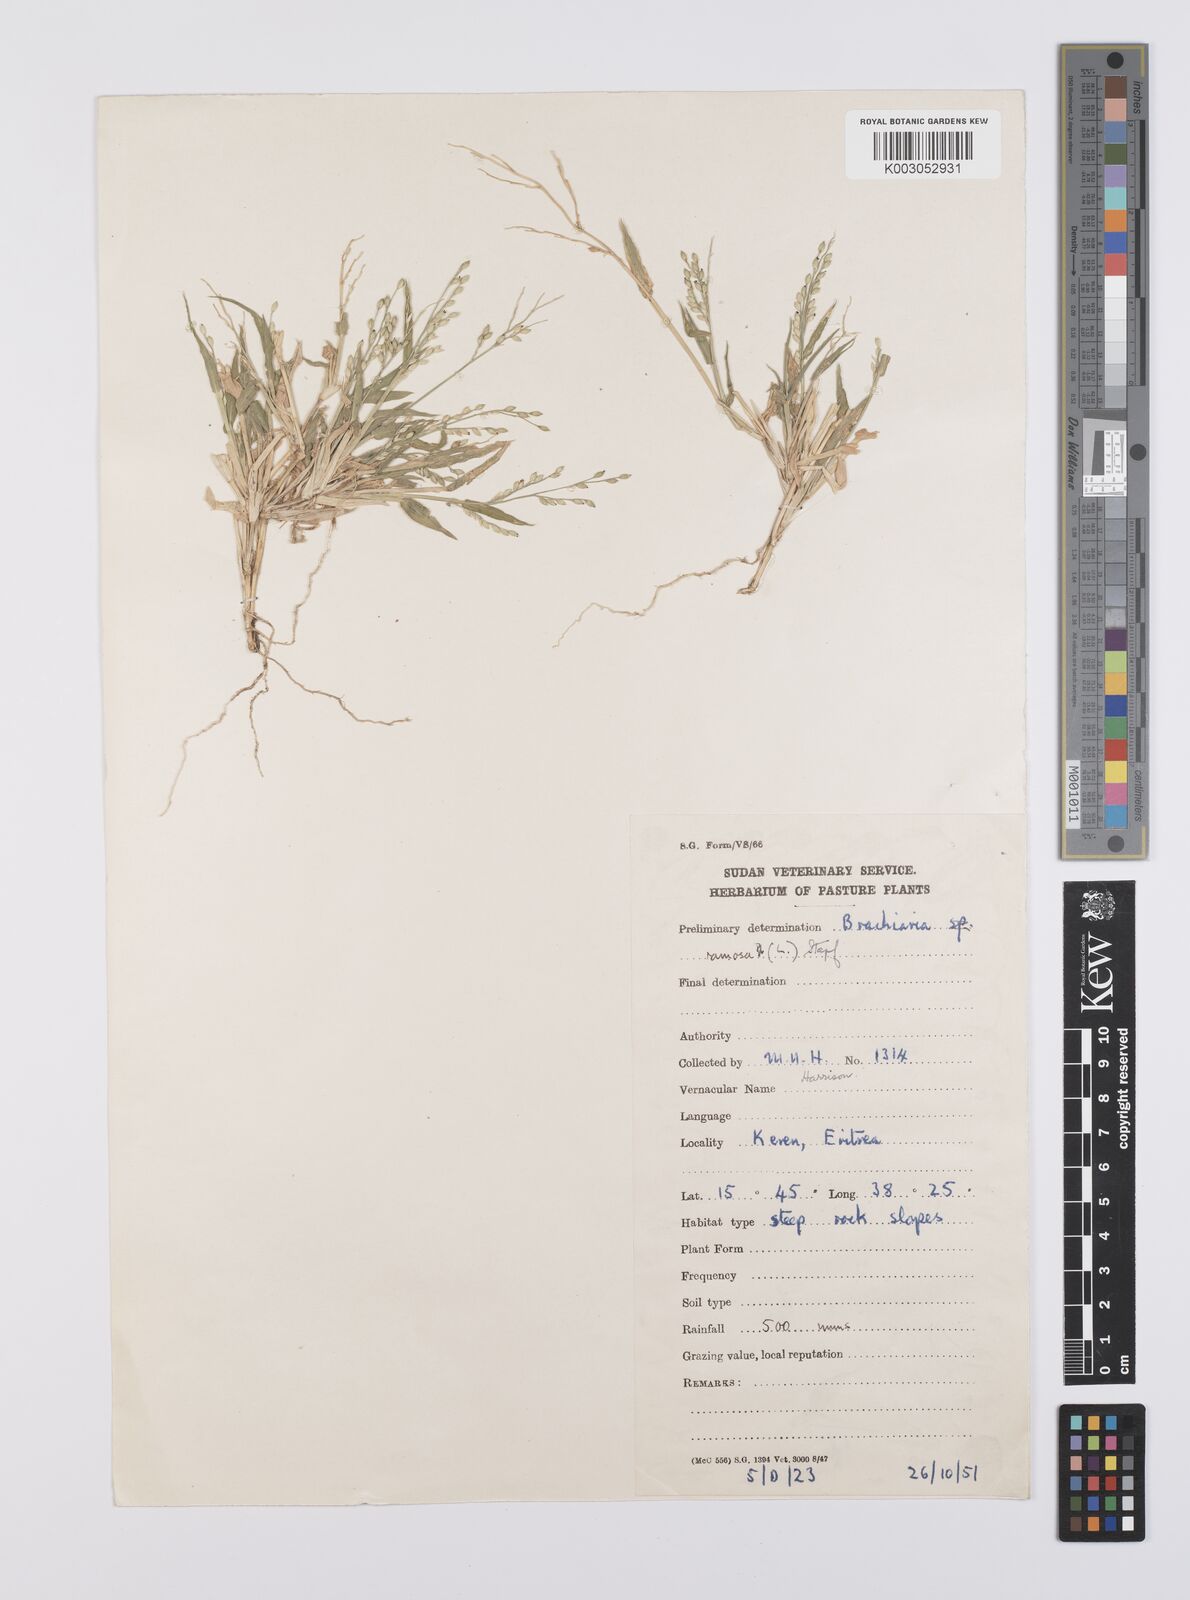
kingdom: Plantae
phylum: Tracheophyta
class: Liliopsida
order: Poales
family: Poaceae
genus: Urochloa
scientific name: Urochloa ramosa
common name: Browntop millet
